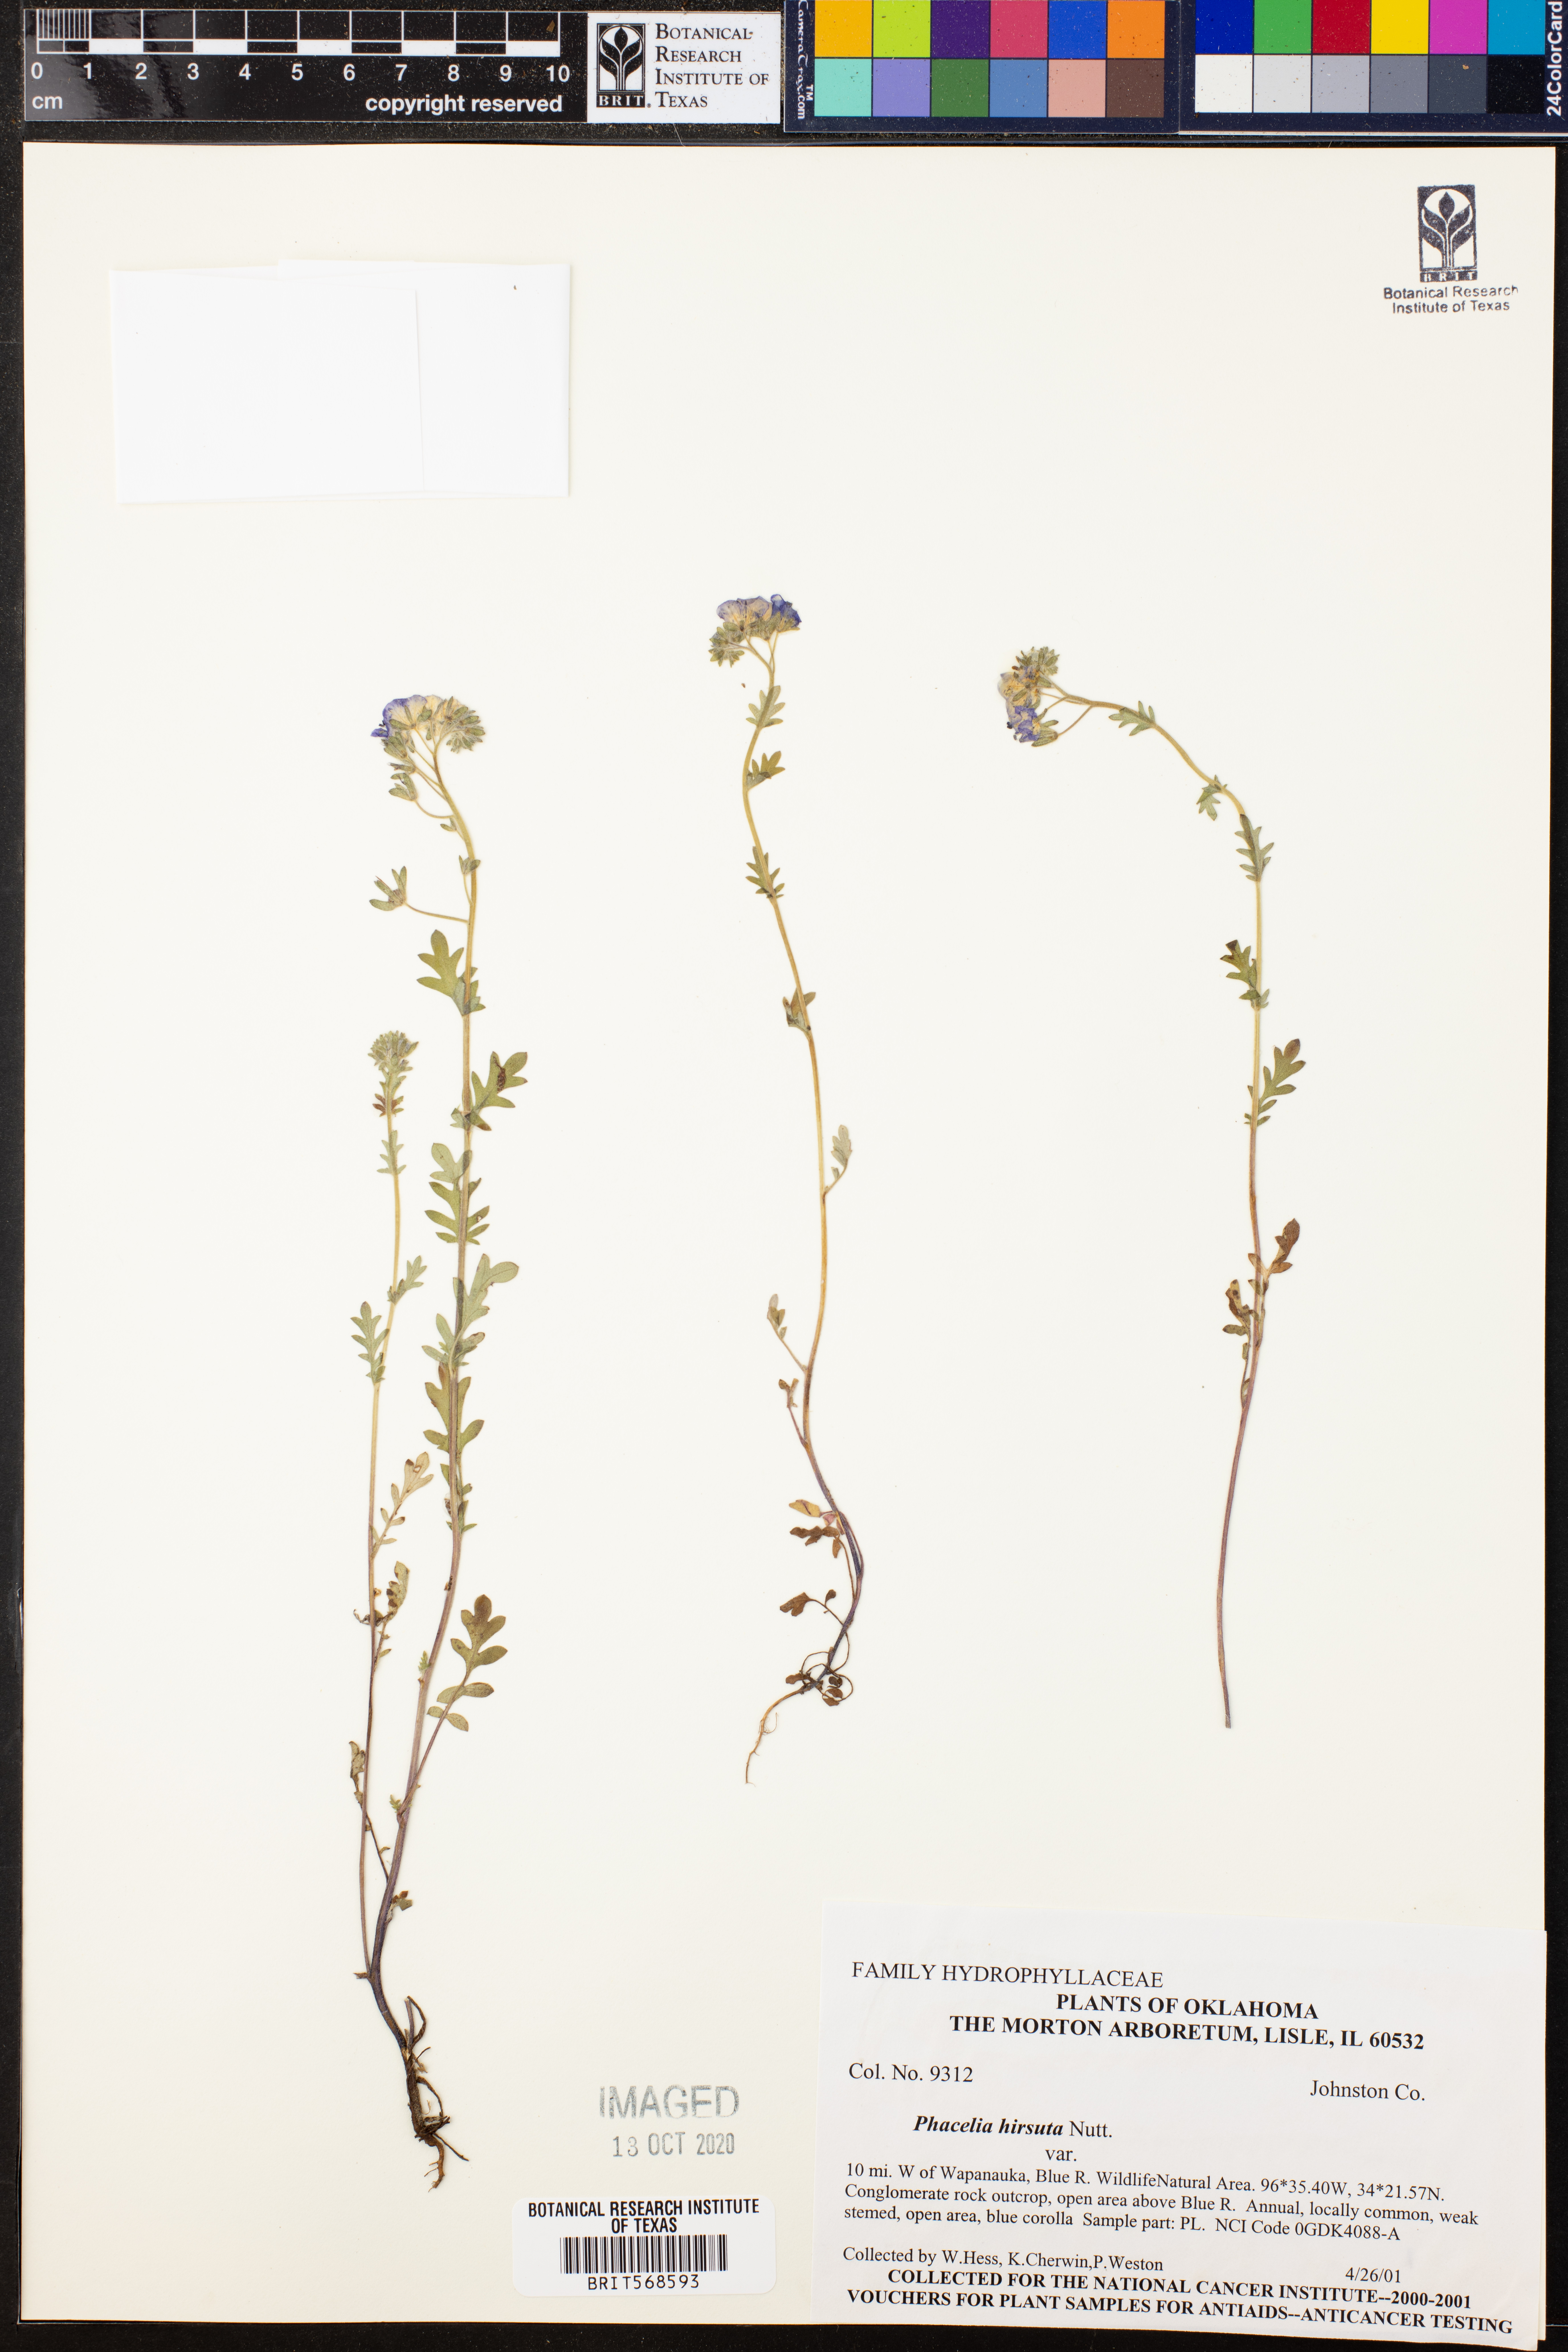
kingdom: Plantae
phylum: Tracheophyta
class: Magnoliopsida
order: Boraginales
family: Hydrophyllaceae
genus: Phacelia
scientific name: Phacelia hirsuta
